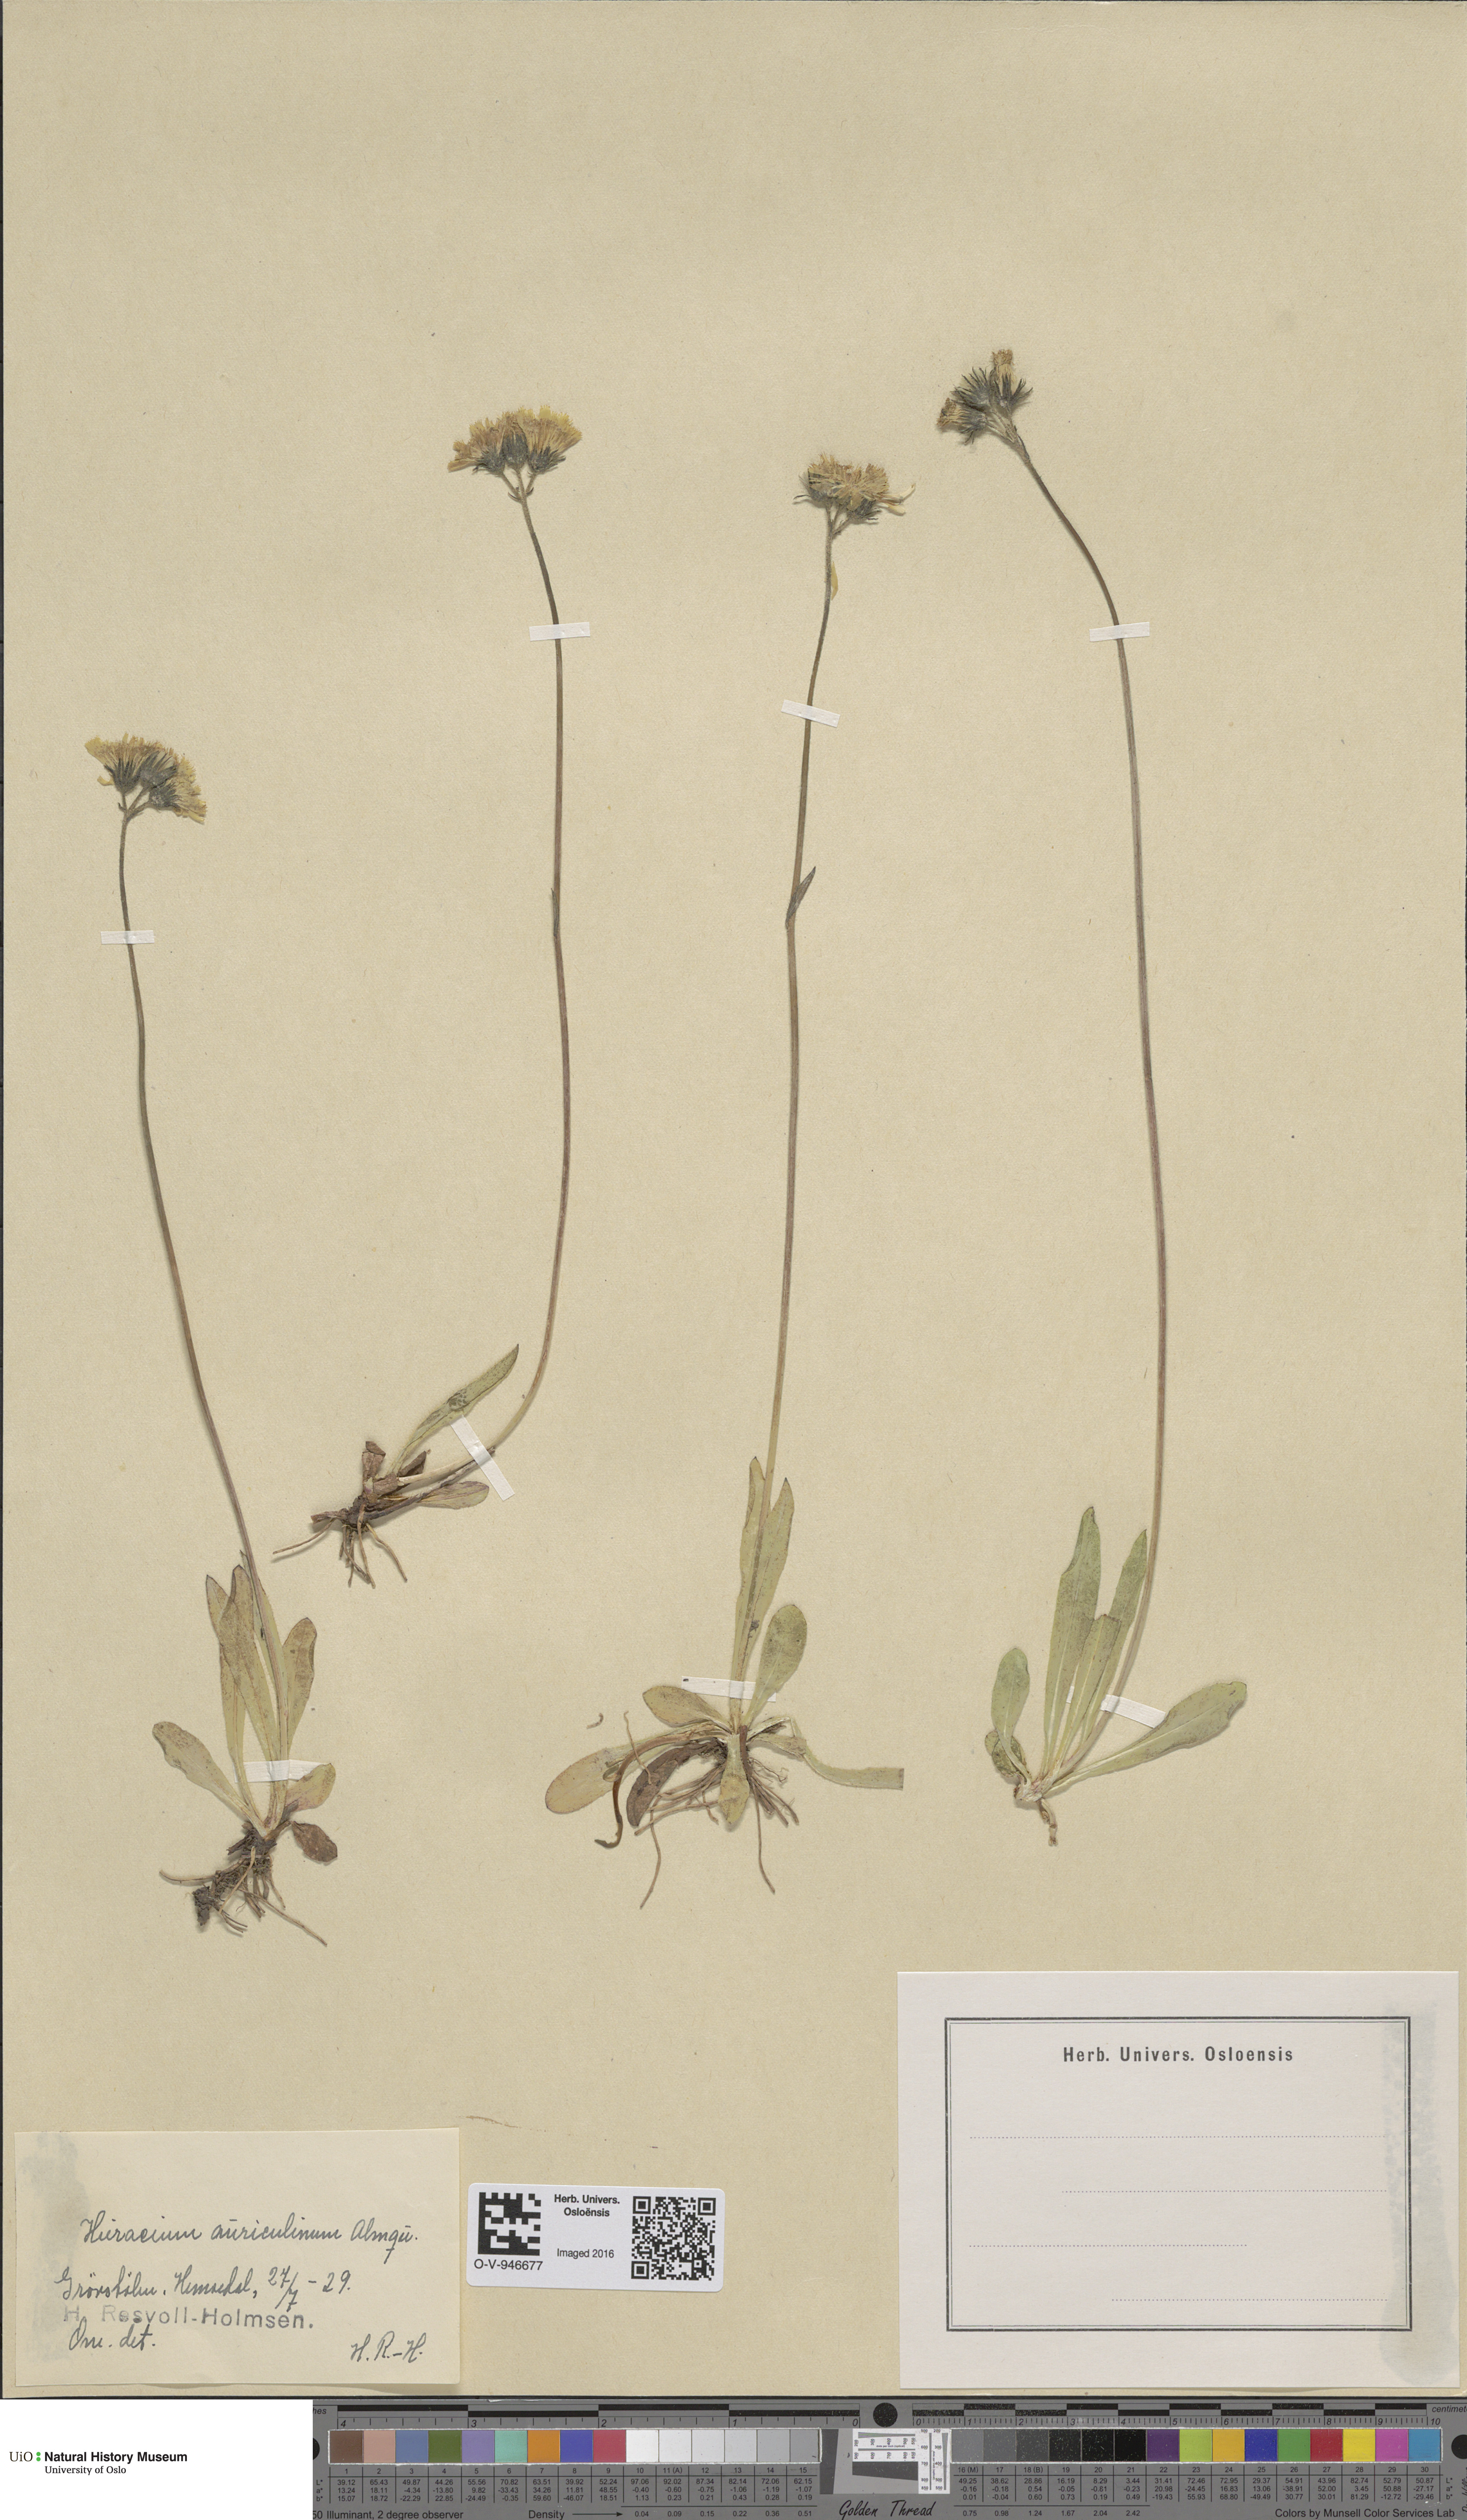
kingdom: Plantae
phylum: Tracheophyta
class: Magnoliopsida
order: Asterales
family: Asteraceae
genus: Pilosella
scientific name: Pilosella dubia
